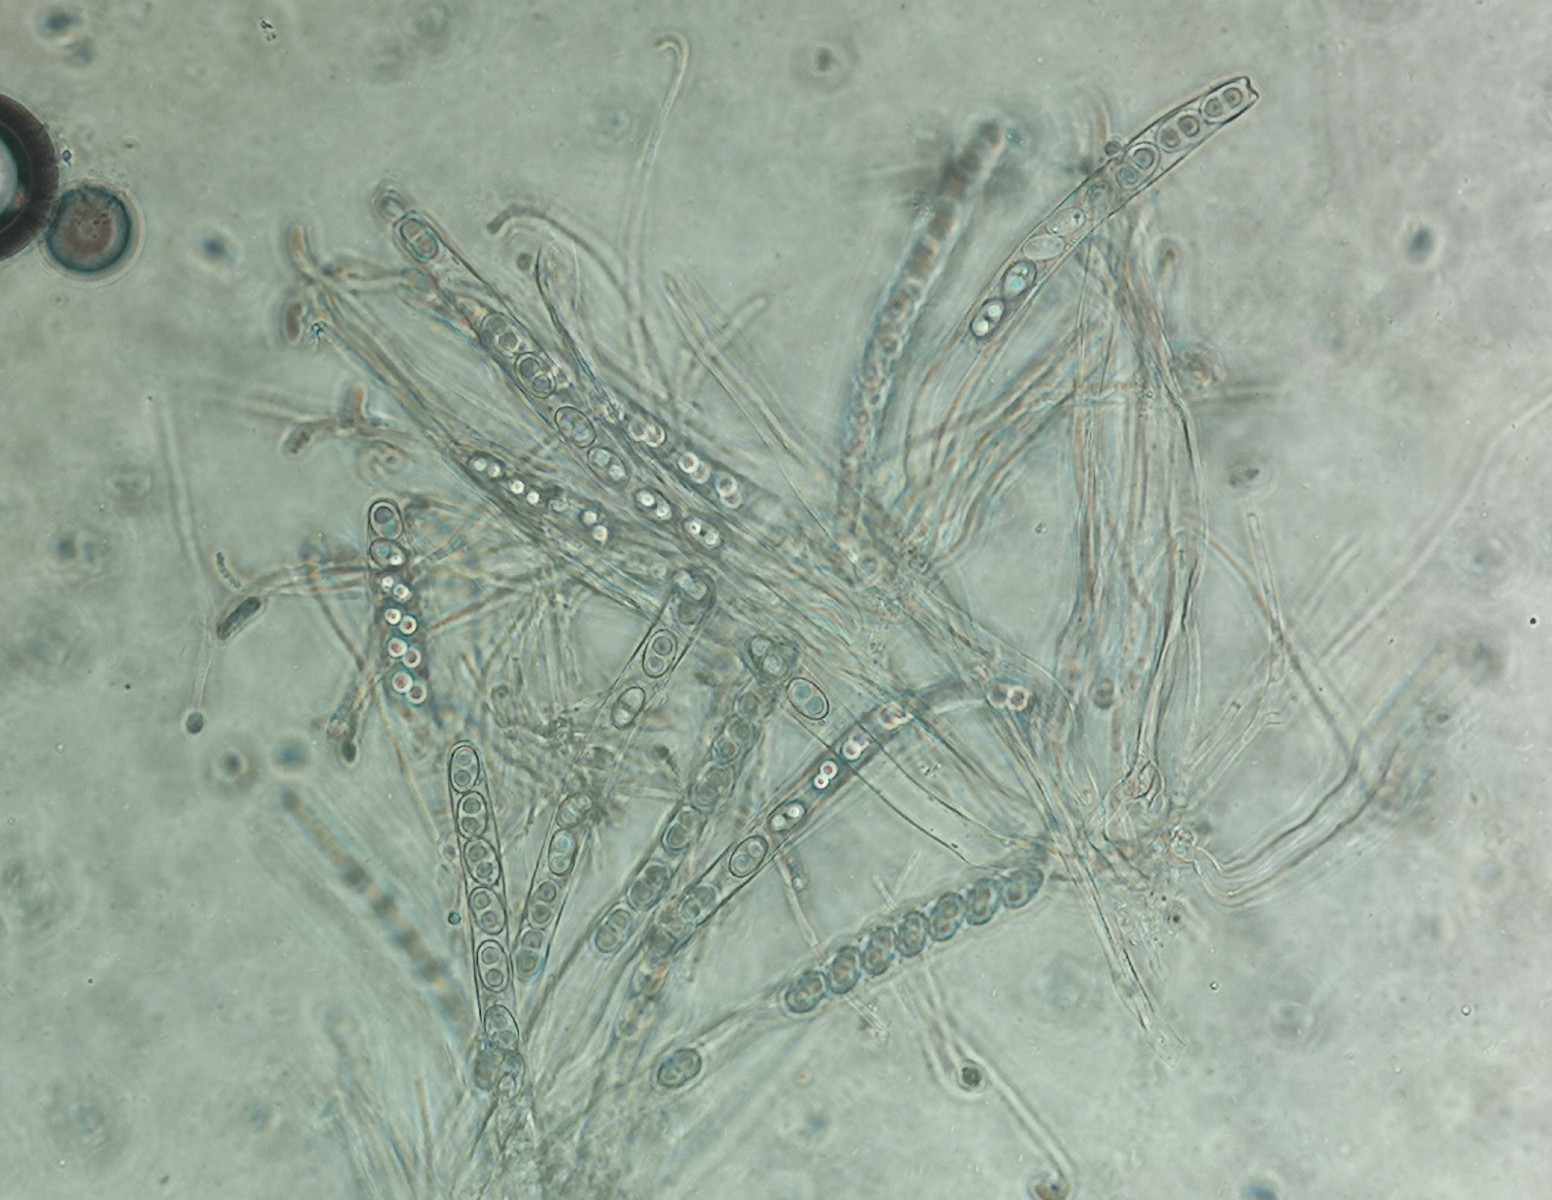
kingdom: Fungi
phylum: Ascomycota
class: Pezizomycetes
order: Pezizales
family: Otideaceae
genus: Otidea
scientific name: Otidea leporina
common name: hare-ørebæger
